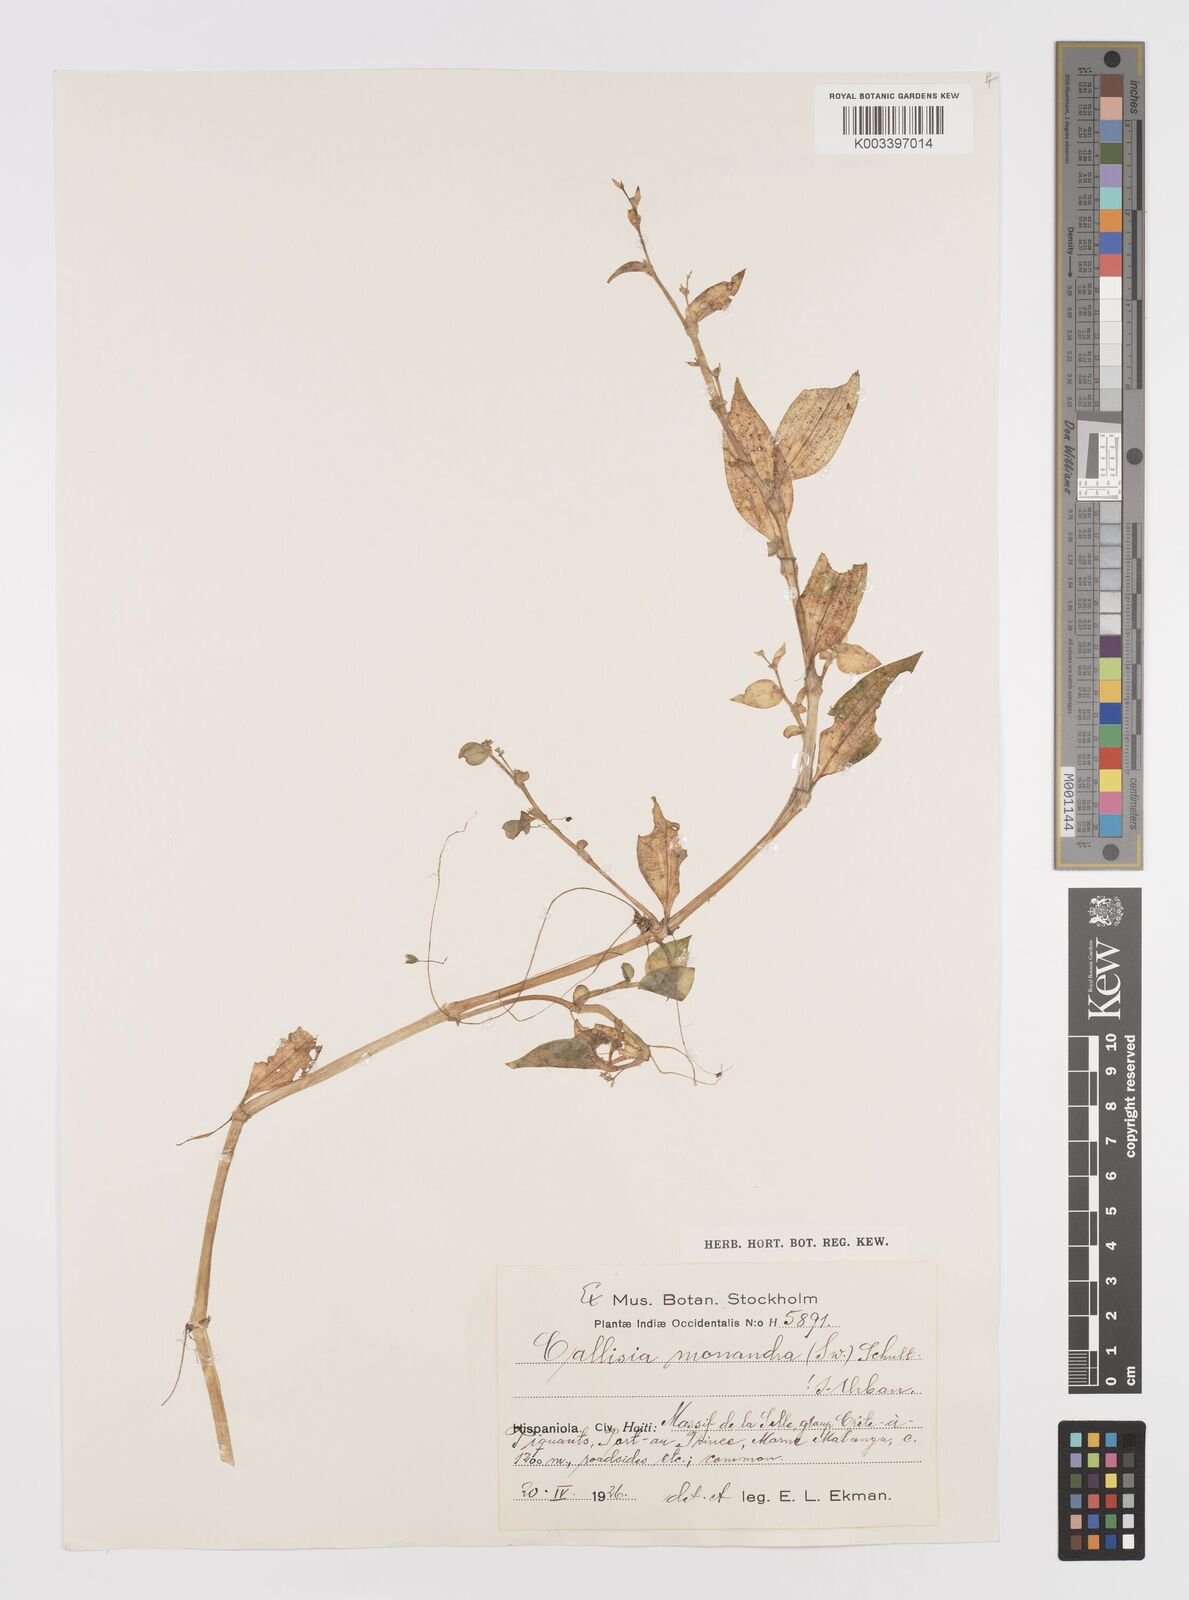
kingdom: Plantae
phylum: Tracheophyta
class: Liliopsida
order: Commelinales
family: Commelinaceae
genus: Callisia
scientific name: Callisia monandra
